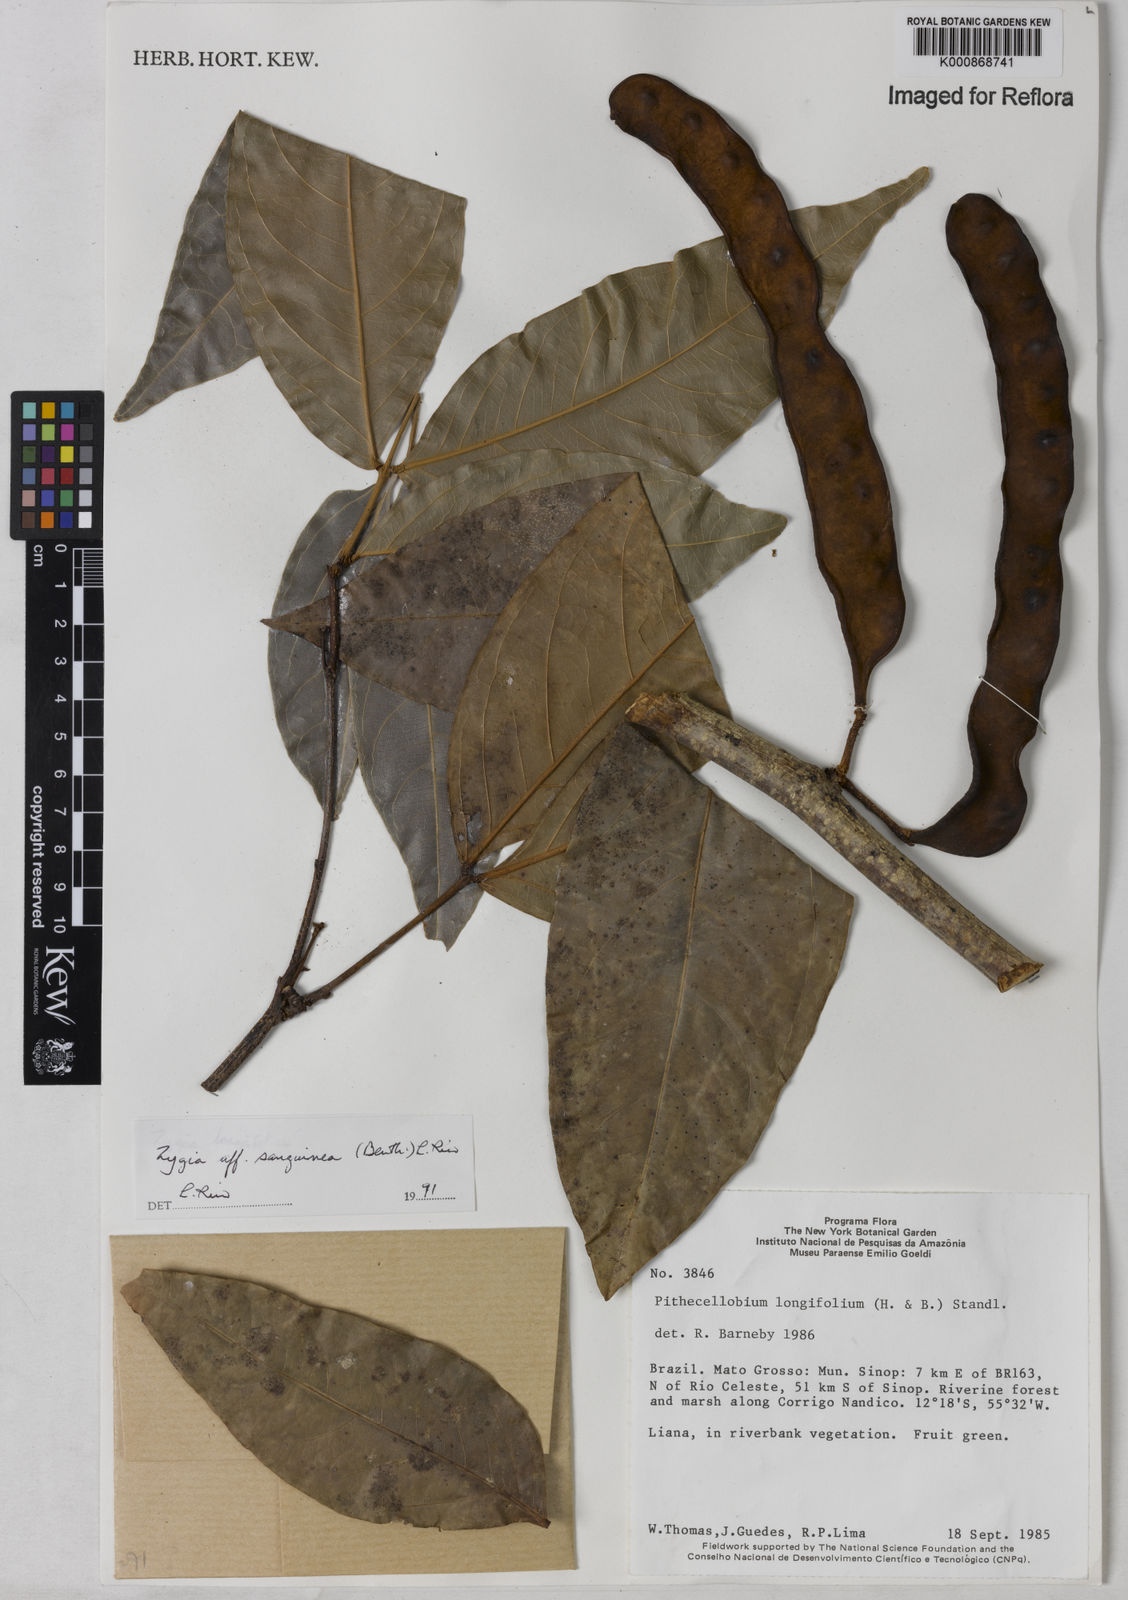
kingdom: Plantae
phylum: Tracheophyta
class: Magnoliopsida
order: Fabales
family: Fabaceae
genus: Zygia
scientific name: Zygia selloi
